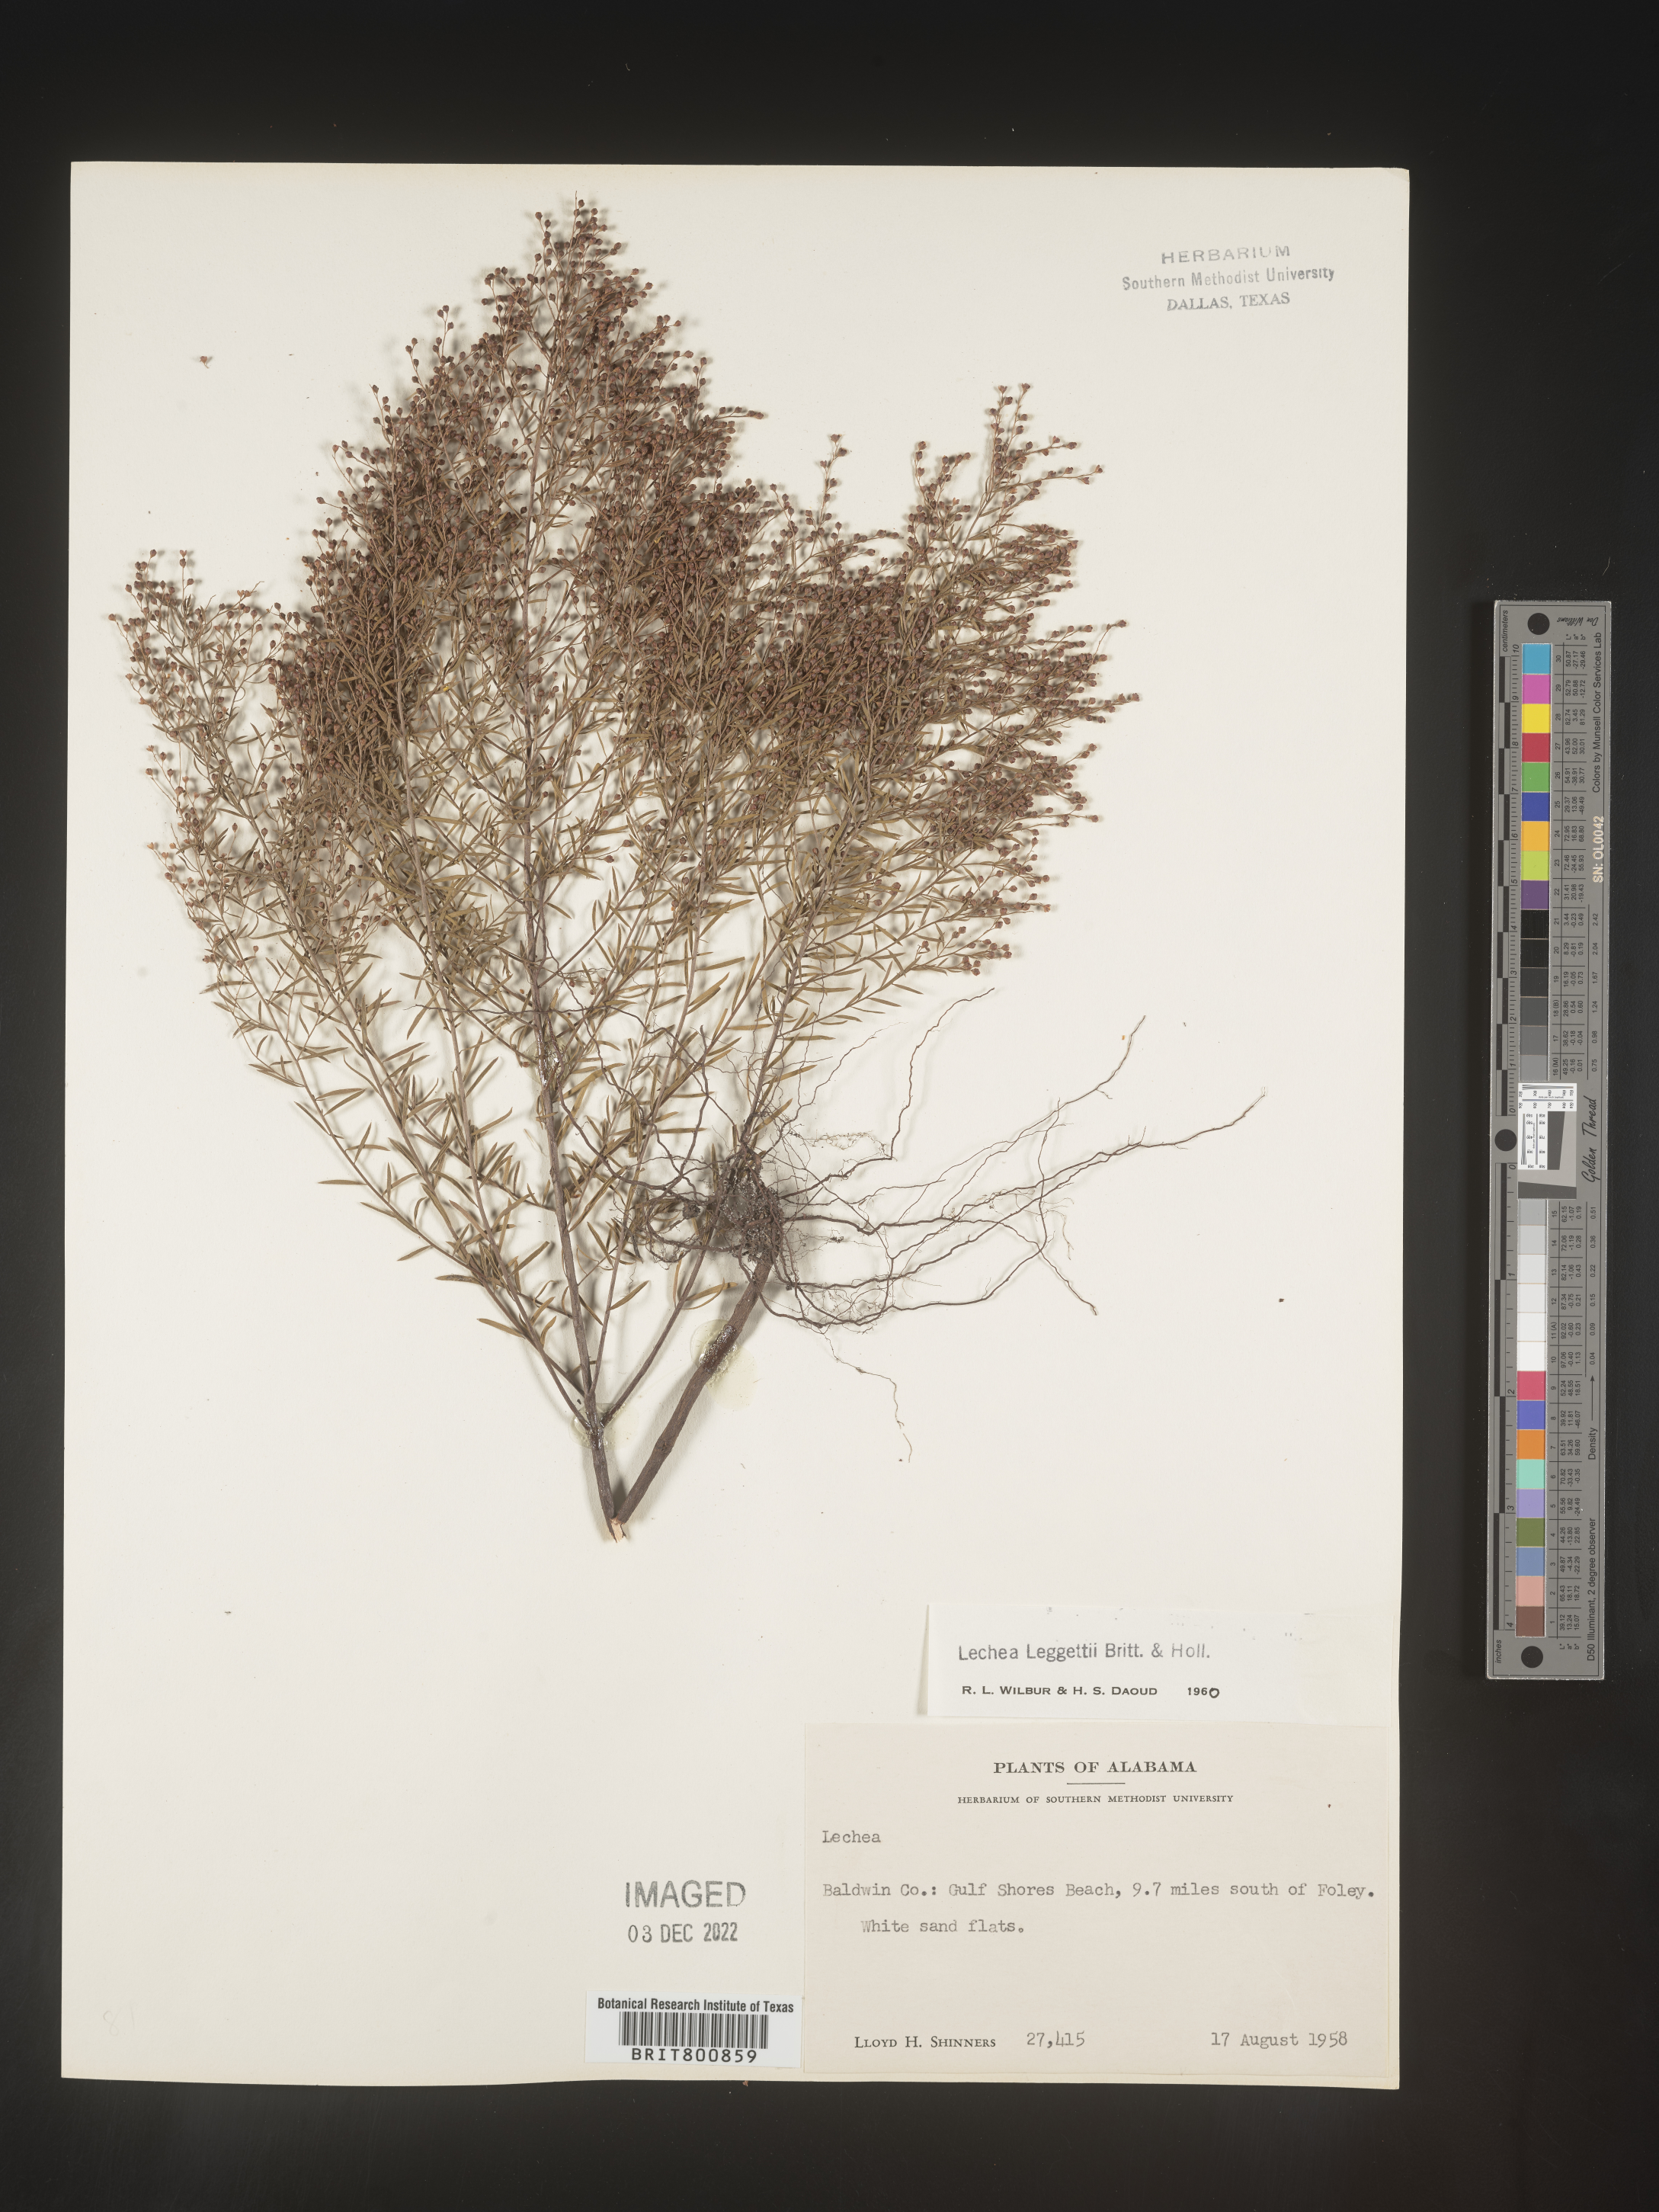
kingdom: Plantae
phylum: Tracheophyta
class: Magnoliopsida
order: Malvales
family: Cistaceae
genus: Lechea
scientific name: Lechea pulchella
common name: Leggett's pinweed
